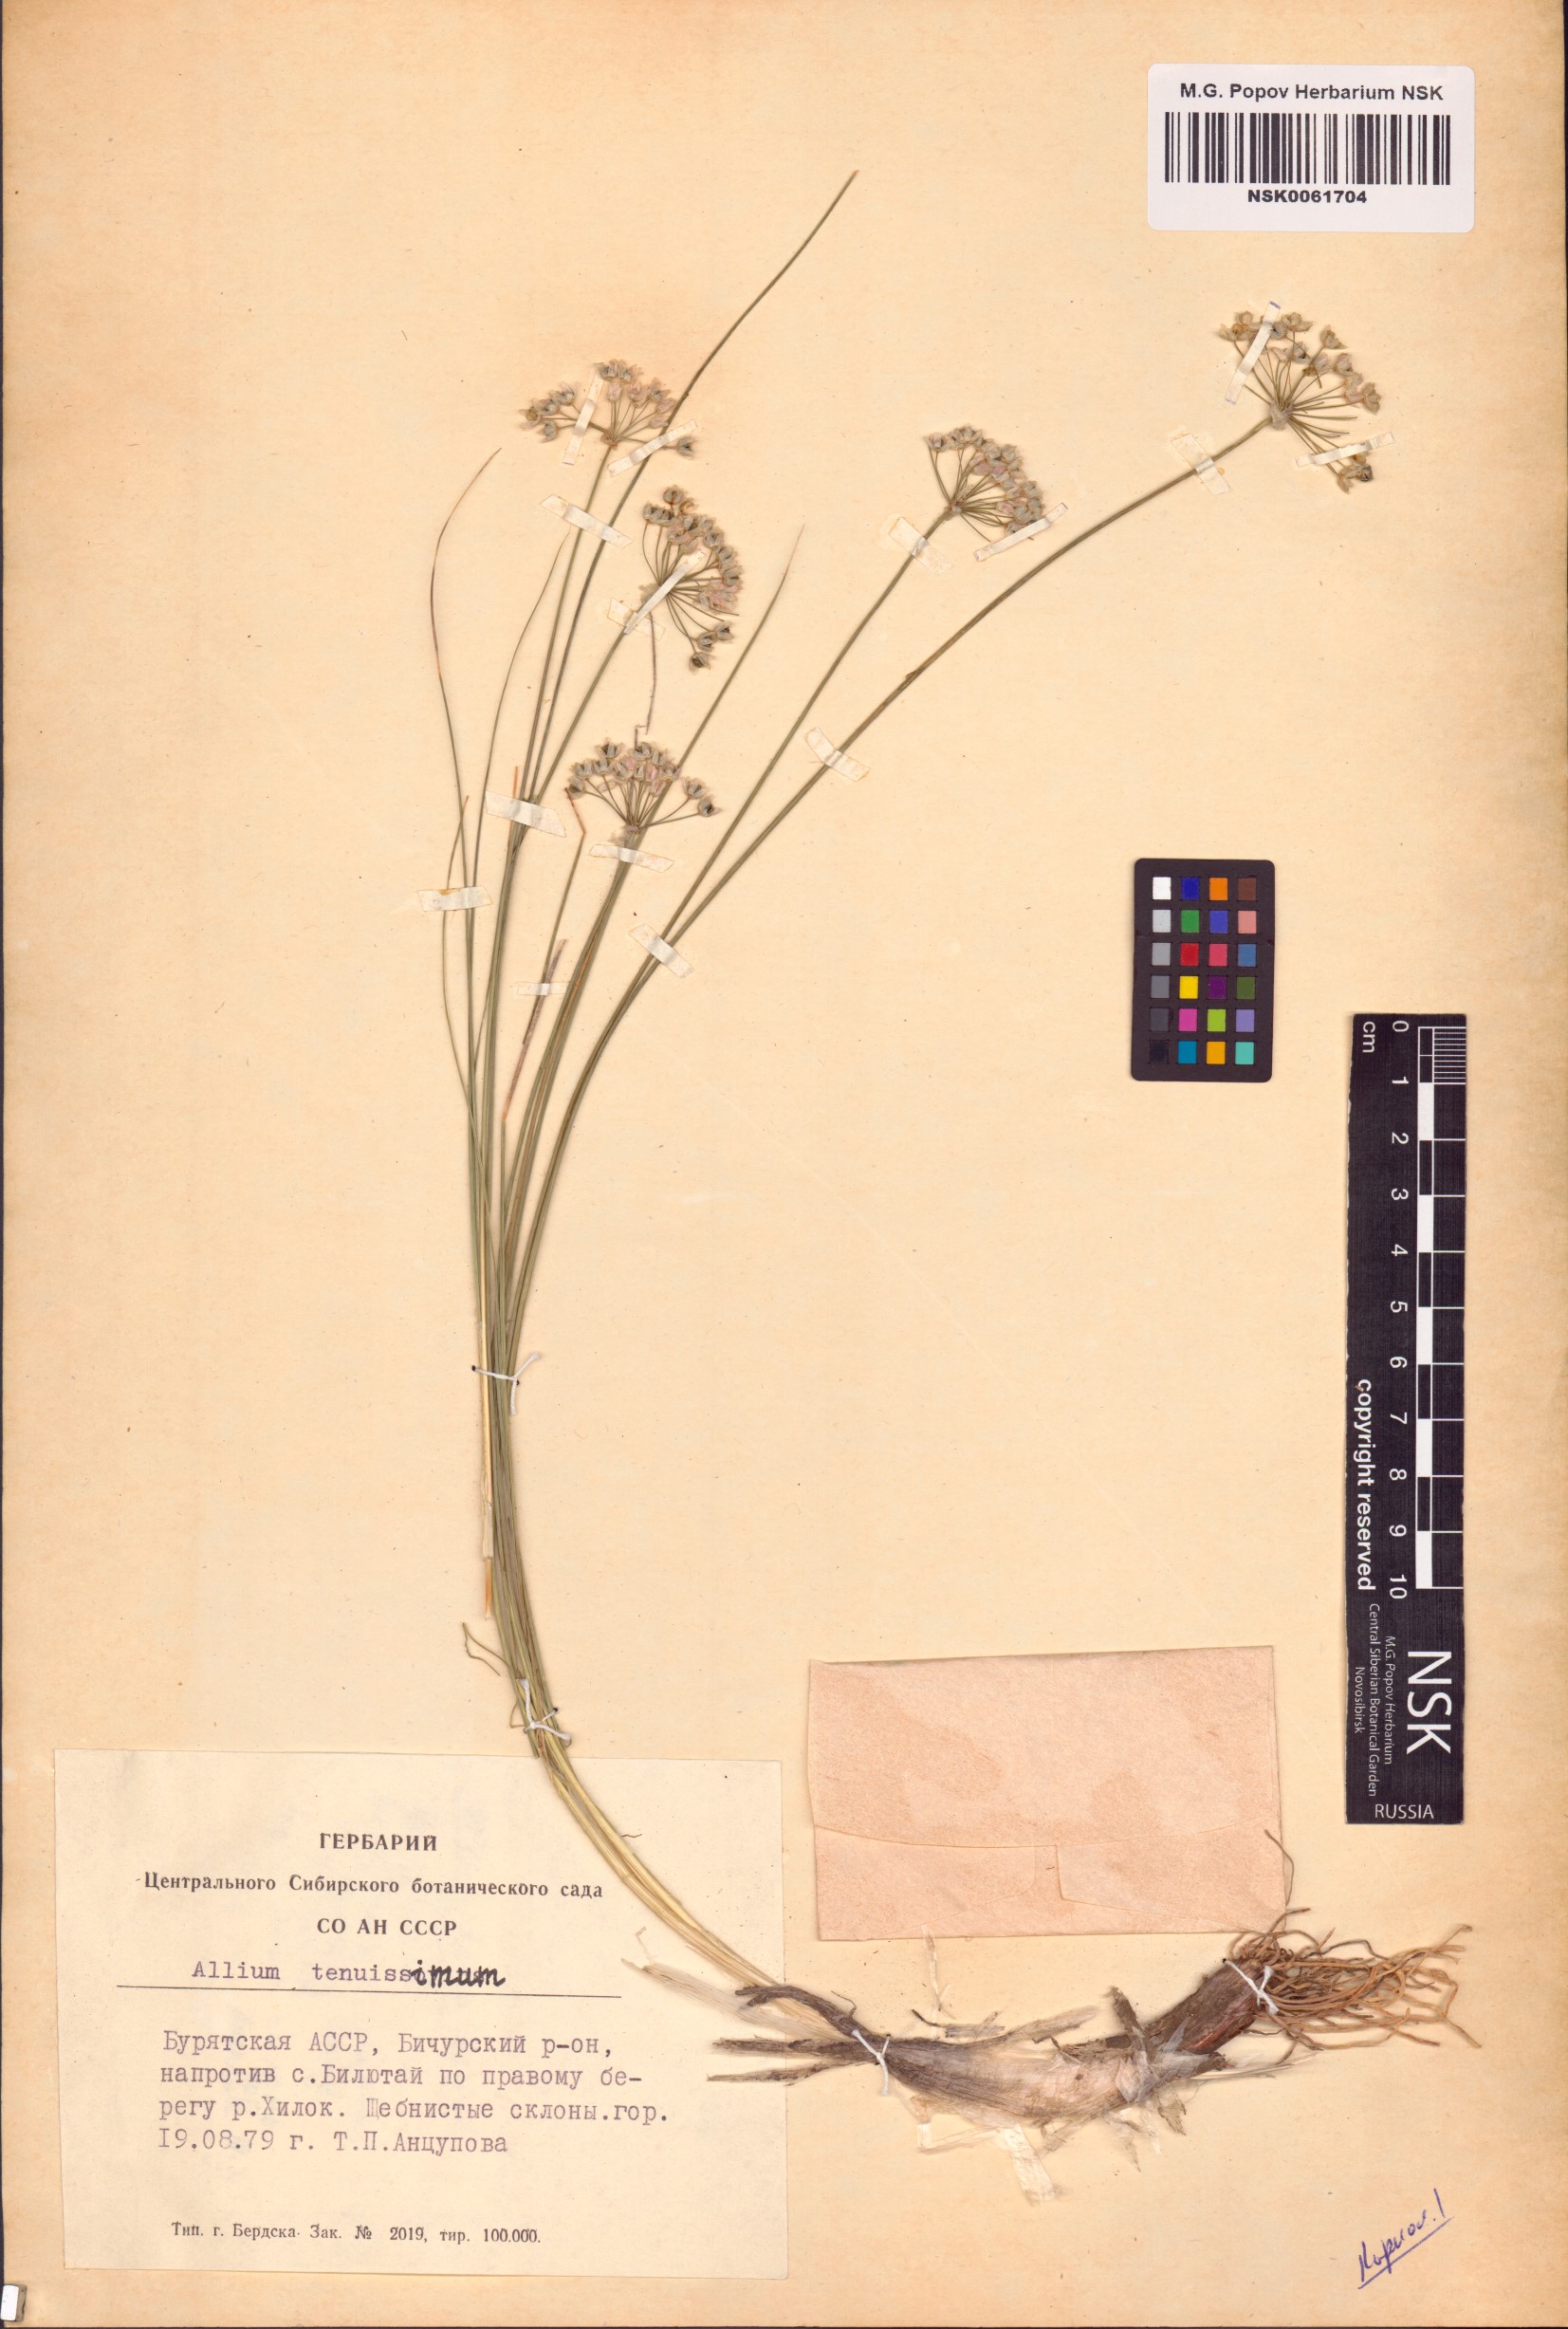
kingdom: Plantae
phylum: Tracheophyta
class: Liliopsida
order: Asparagales
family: Amaryllidaceae
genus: Allium
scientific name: Allium tenuissimum
